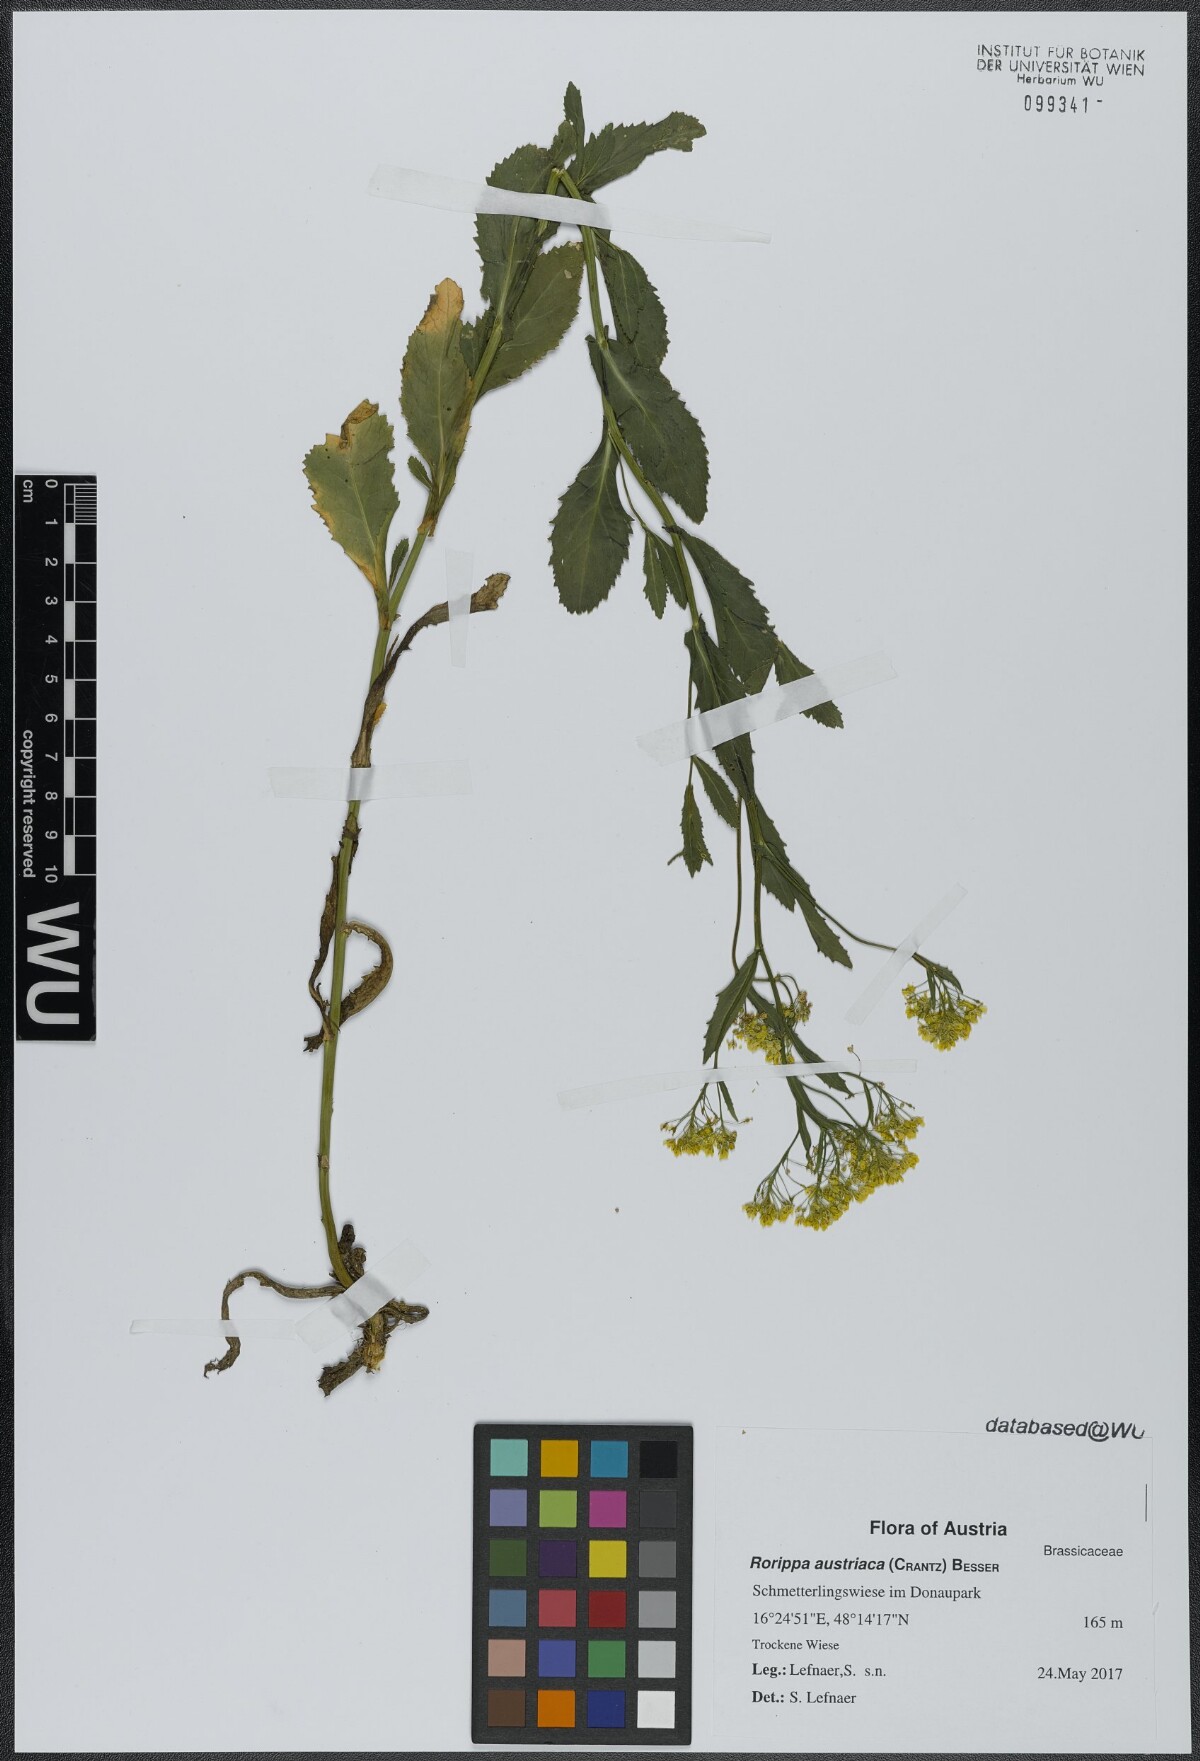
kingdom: Plantae
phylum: Tracheophyta
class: Magnoliopsida
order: Brassicales
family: Brassicaceae
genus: Rorippa
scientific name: Rorippa austriaca
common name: Austrian yellow-cress
